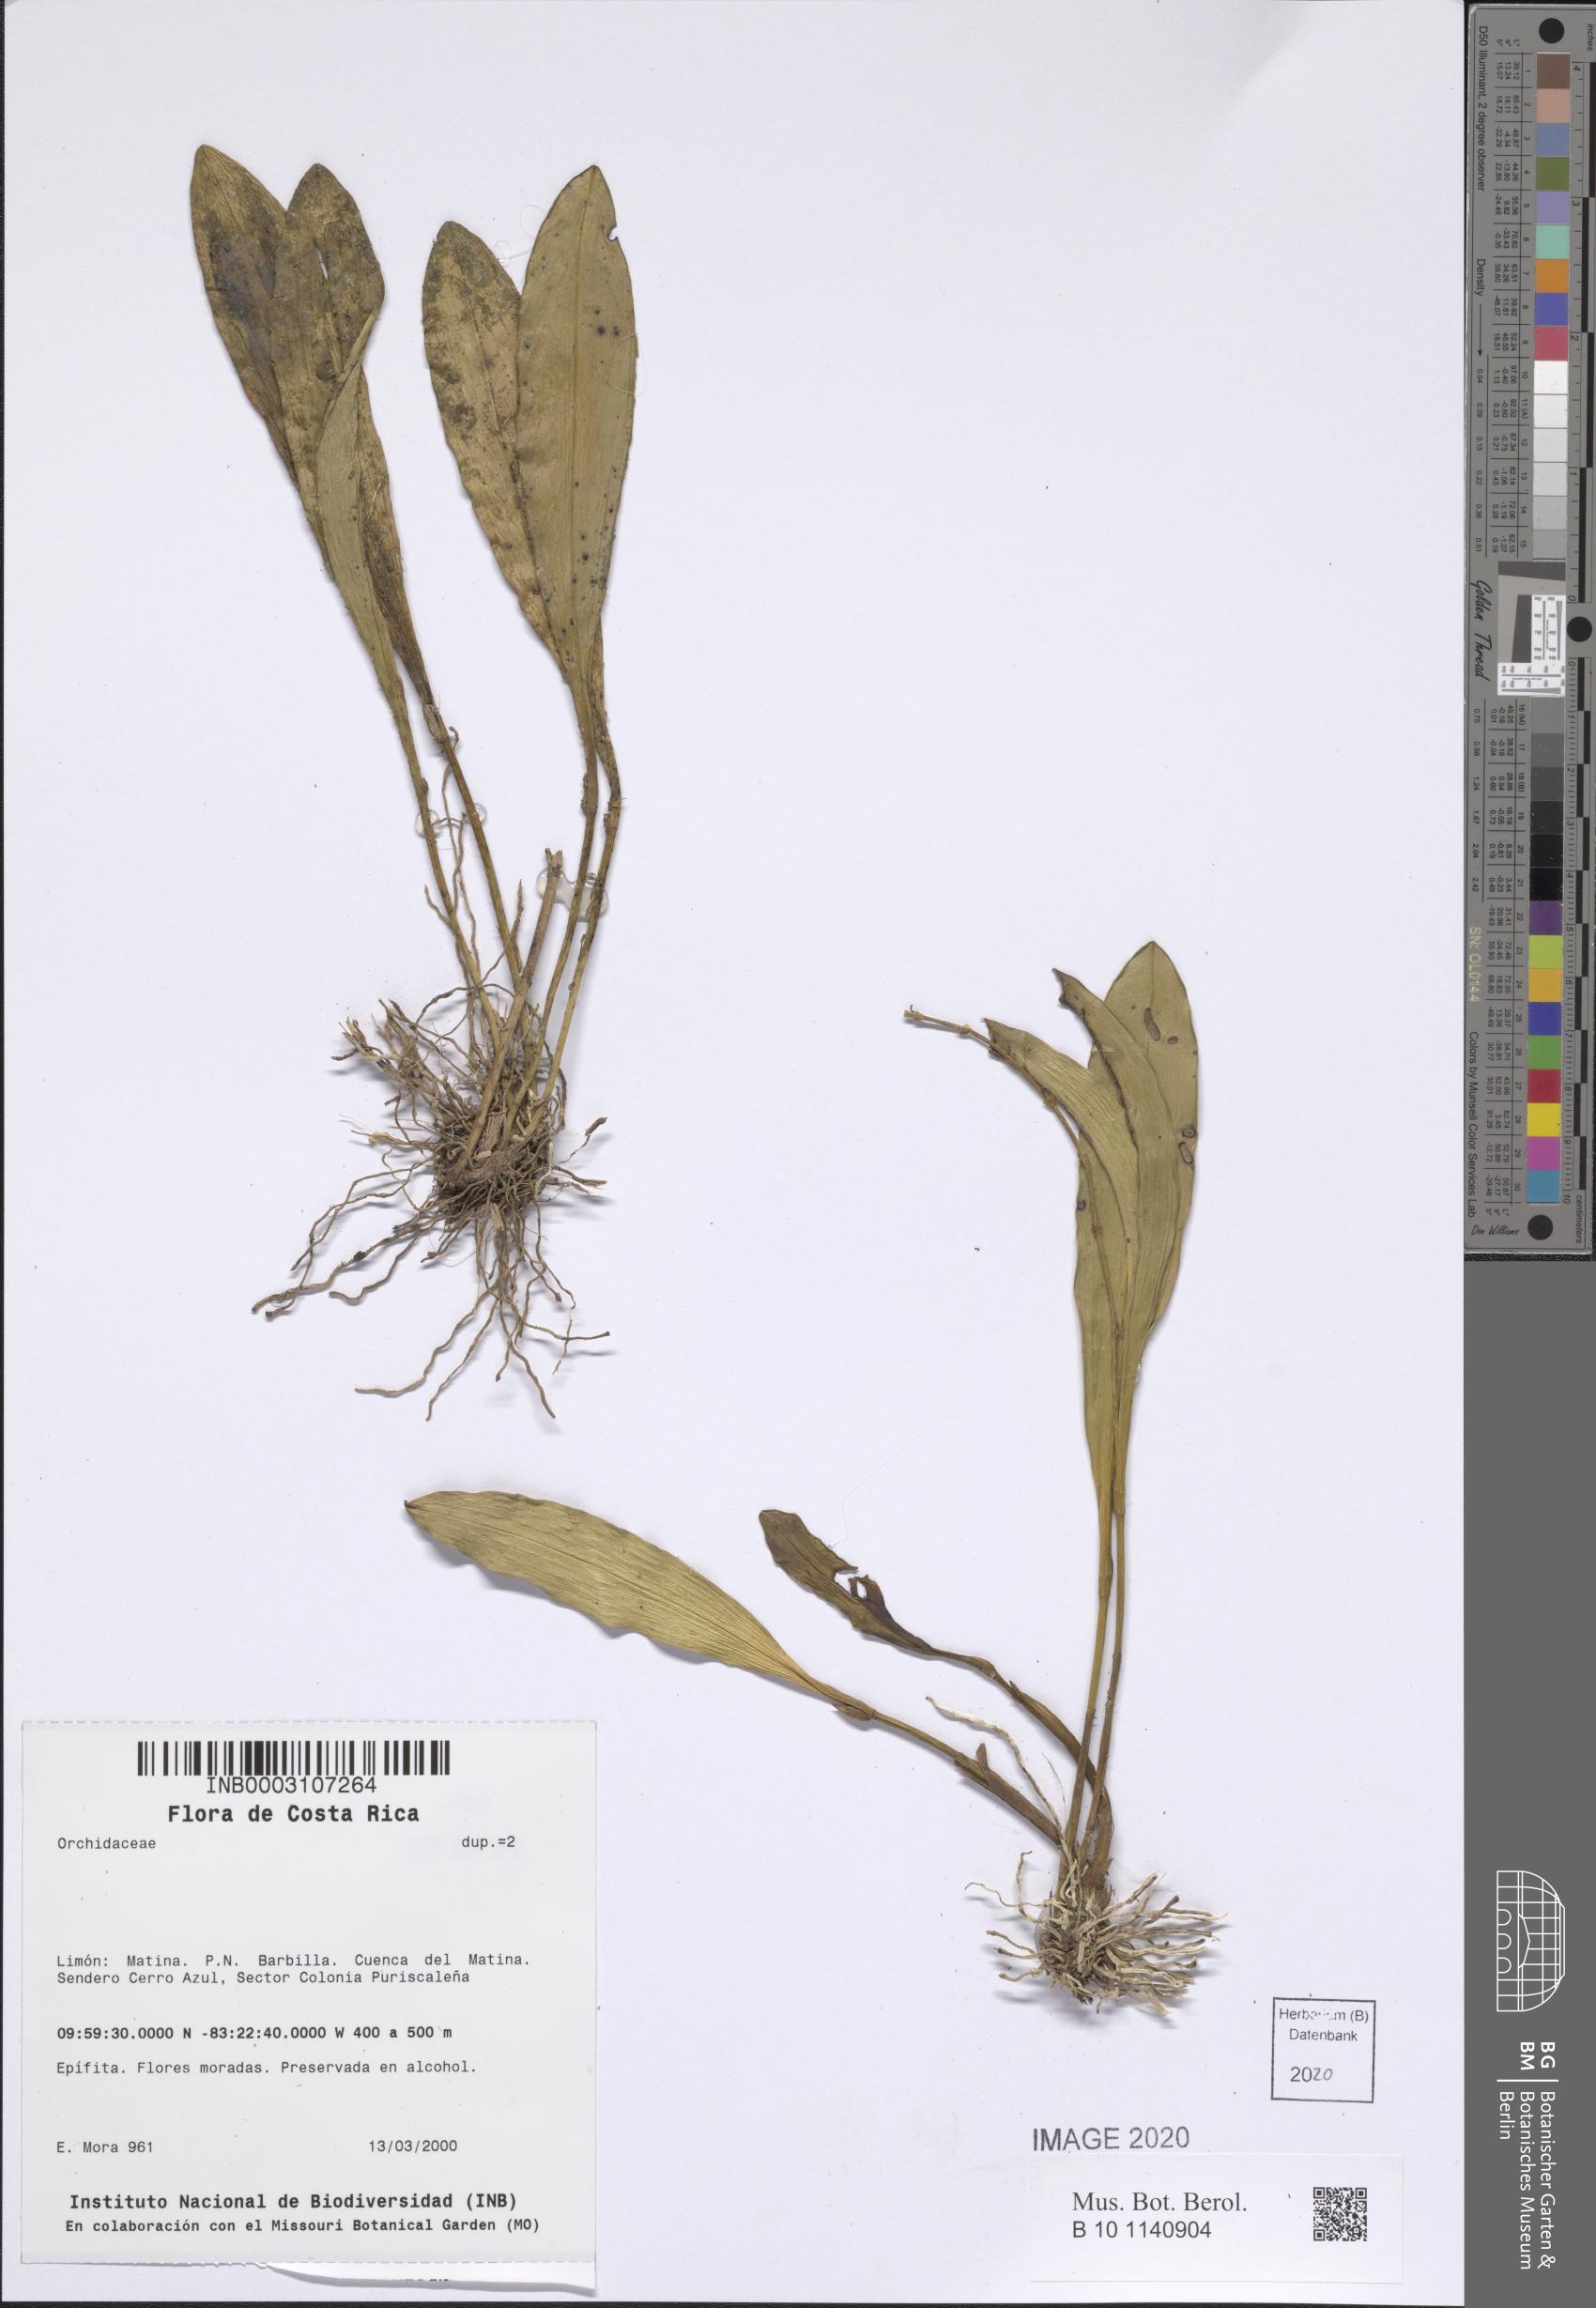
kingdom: Plantae
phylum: Tracheophyta
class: Liliopsida
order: Asparagales
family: Orchidaceae
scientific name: Orchidaceae
